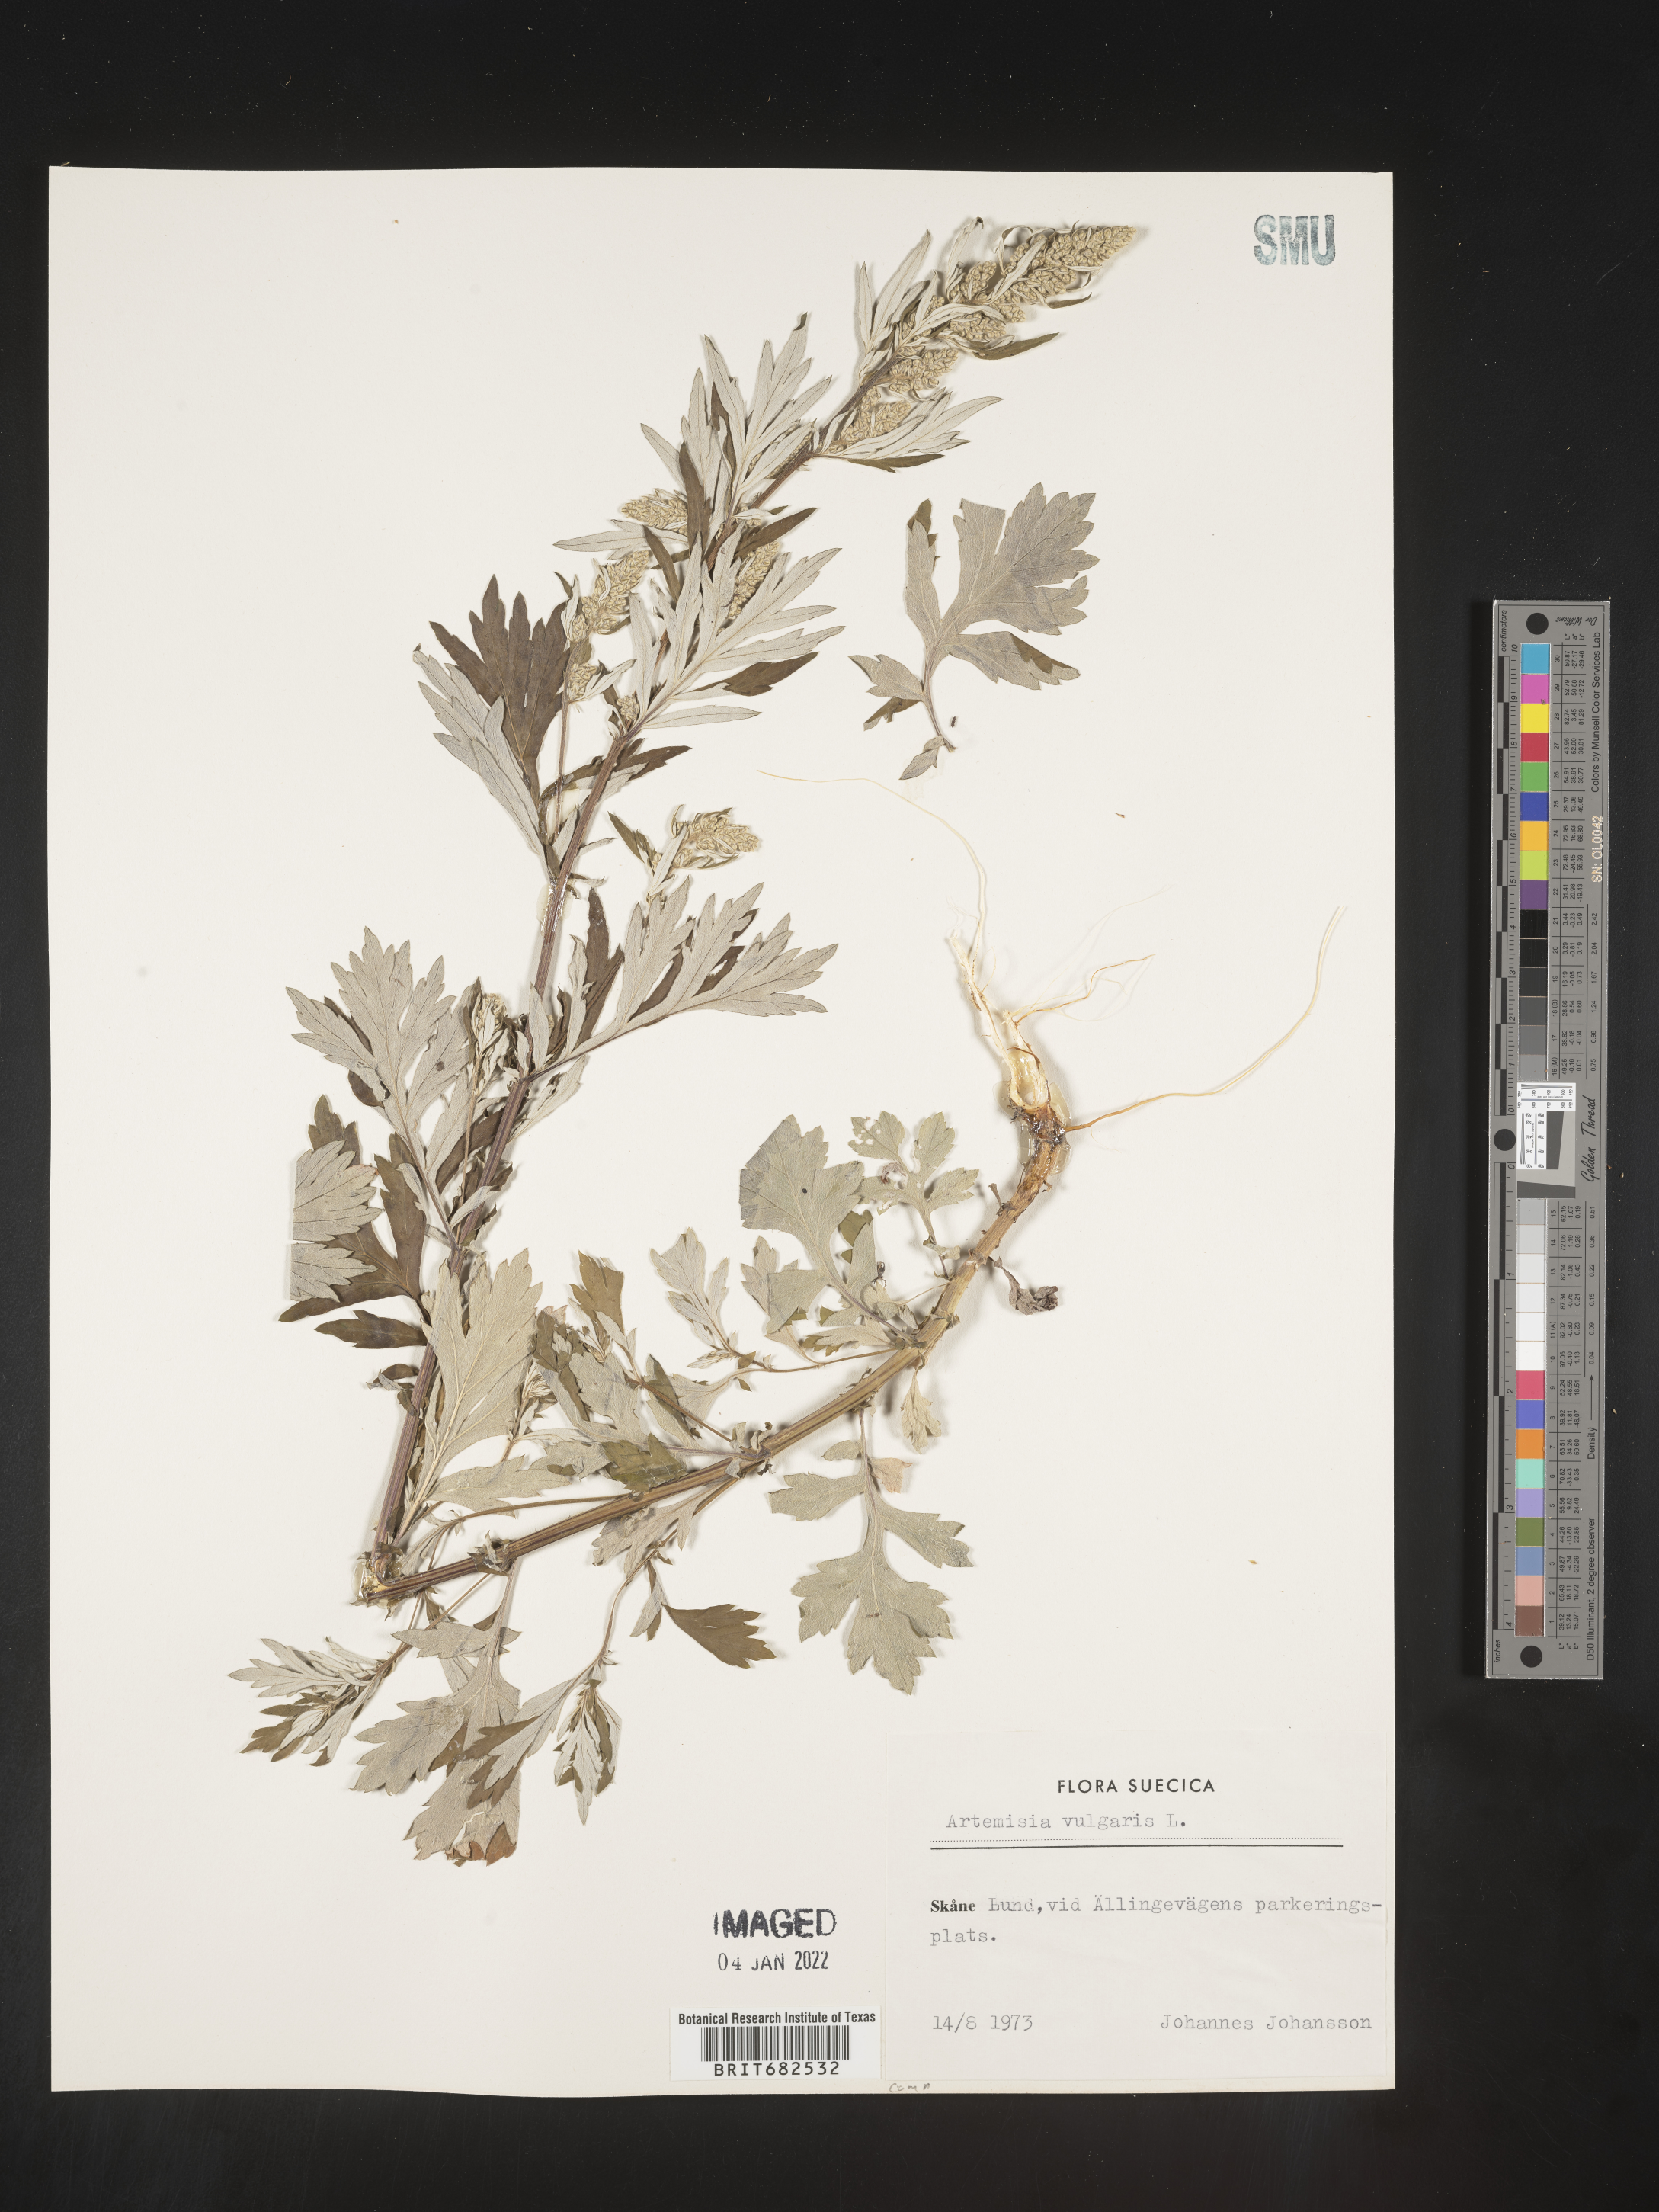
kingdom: Plantae
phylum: Tracheophyta
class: Magnoliopsida
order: Asterales
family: Asteraceae
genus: Artemisia
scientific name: Artemisia
